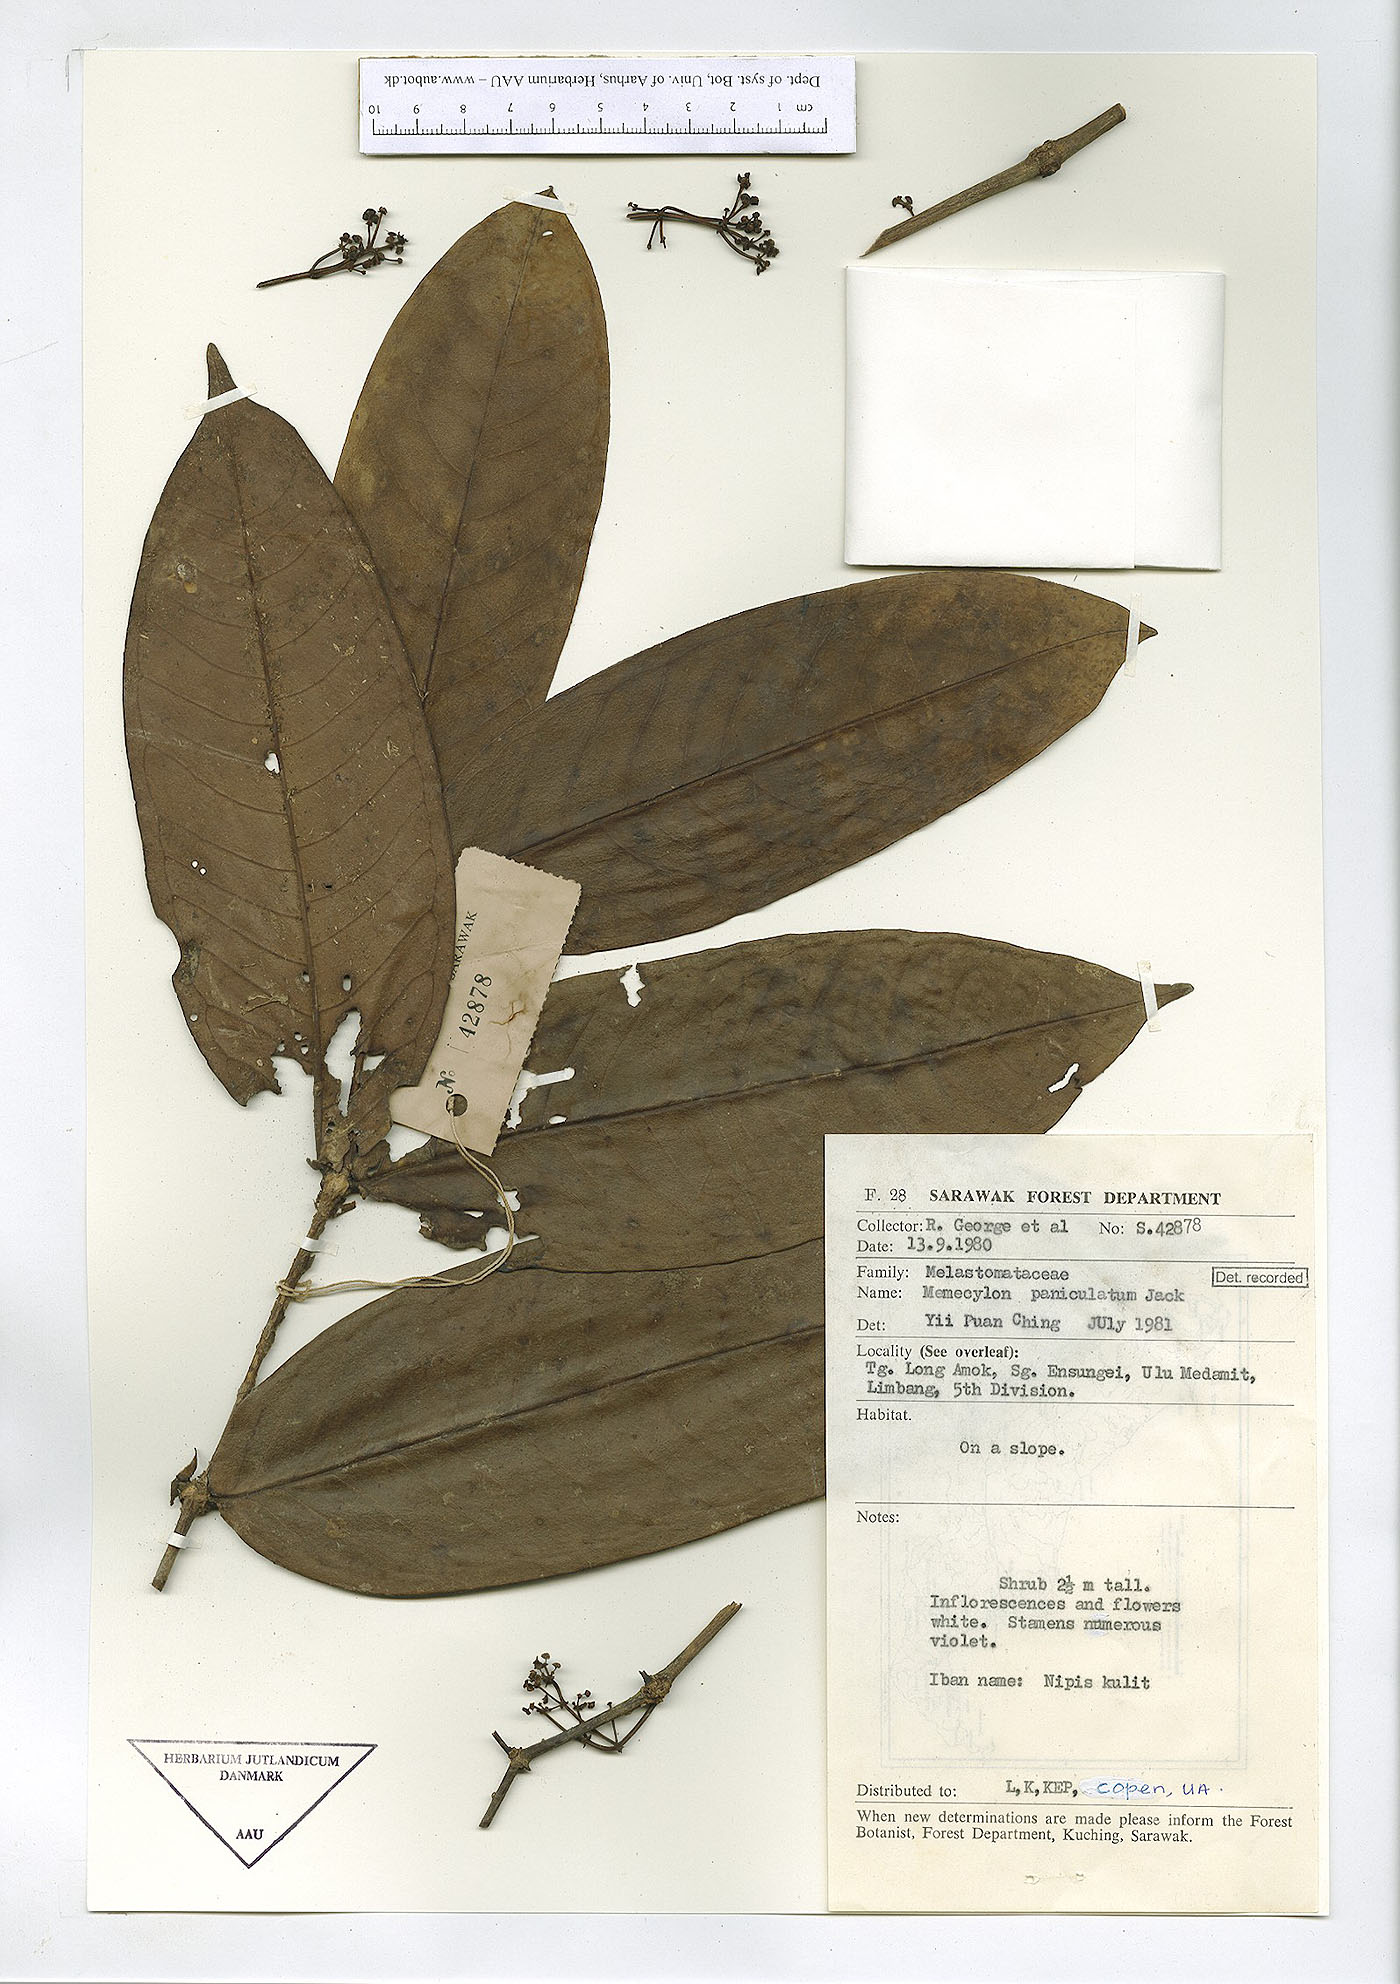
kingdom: Plantae
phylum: Tracheophyta
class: Magnoliopsida
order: Myrtales
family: Melastomataceae
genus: Memecylon
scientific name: Memecylon paniculatum
